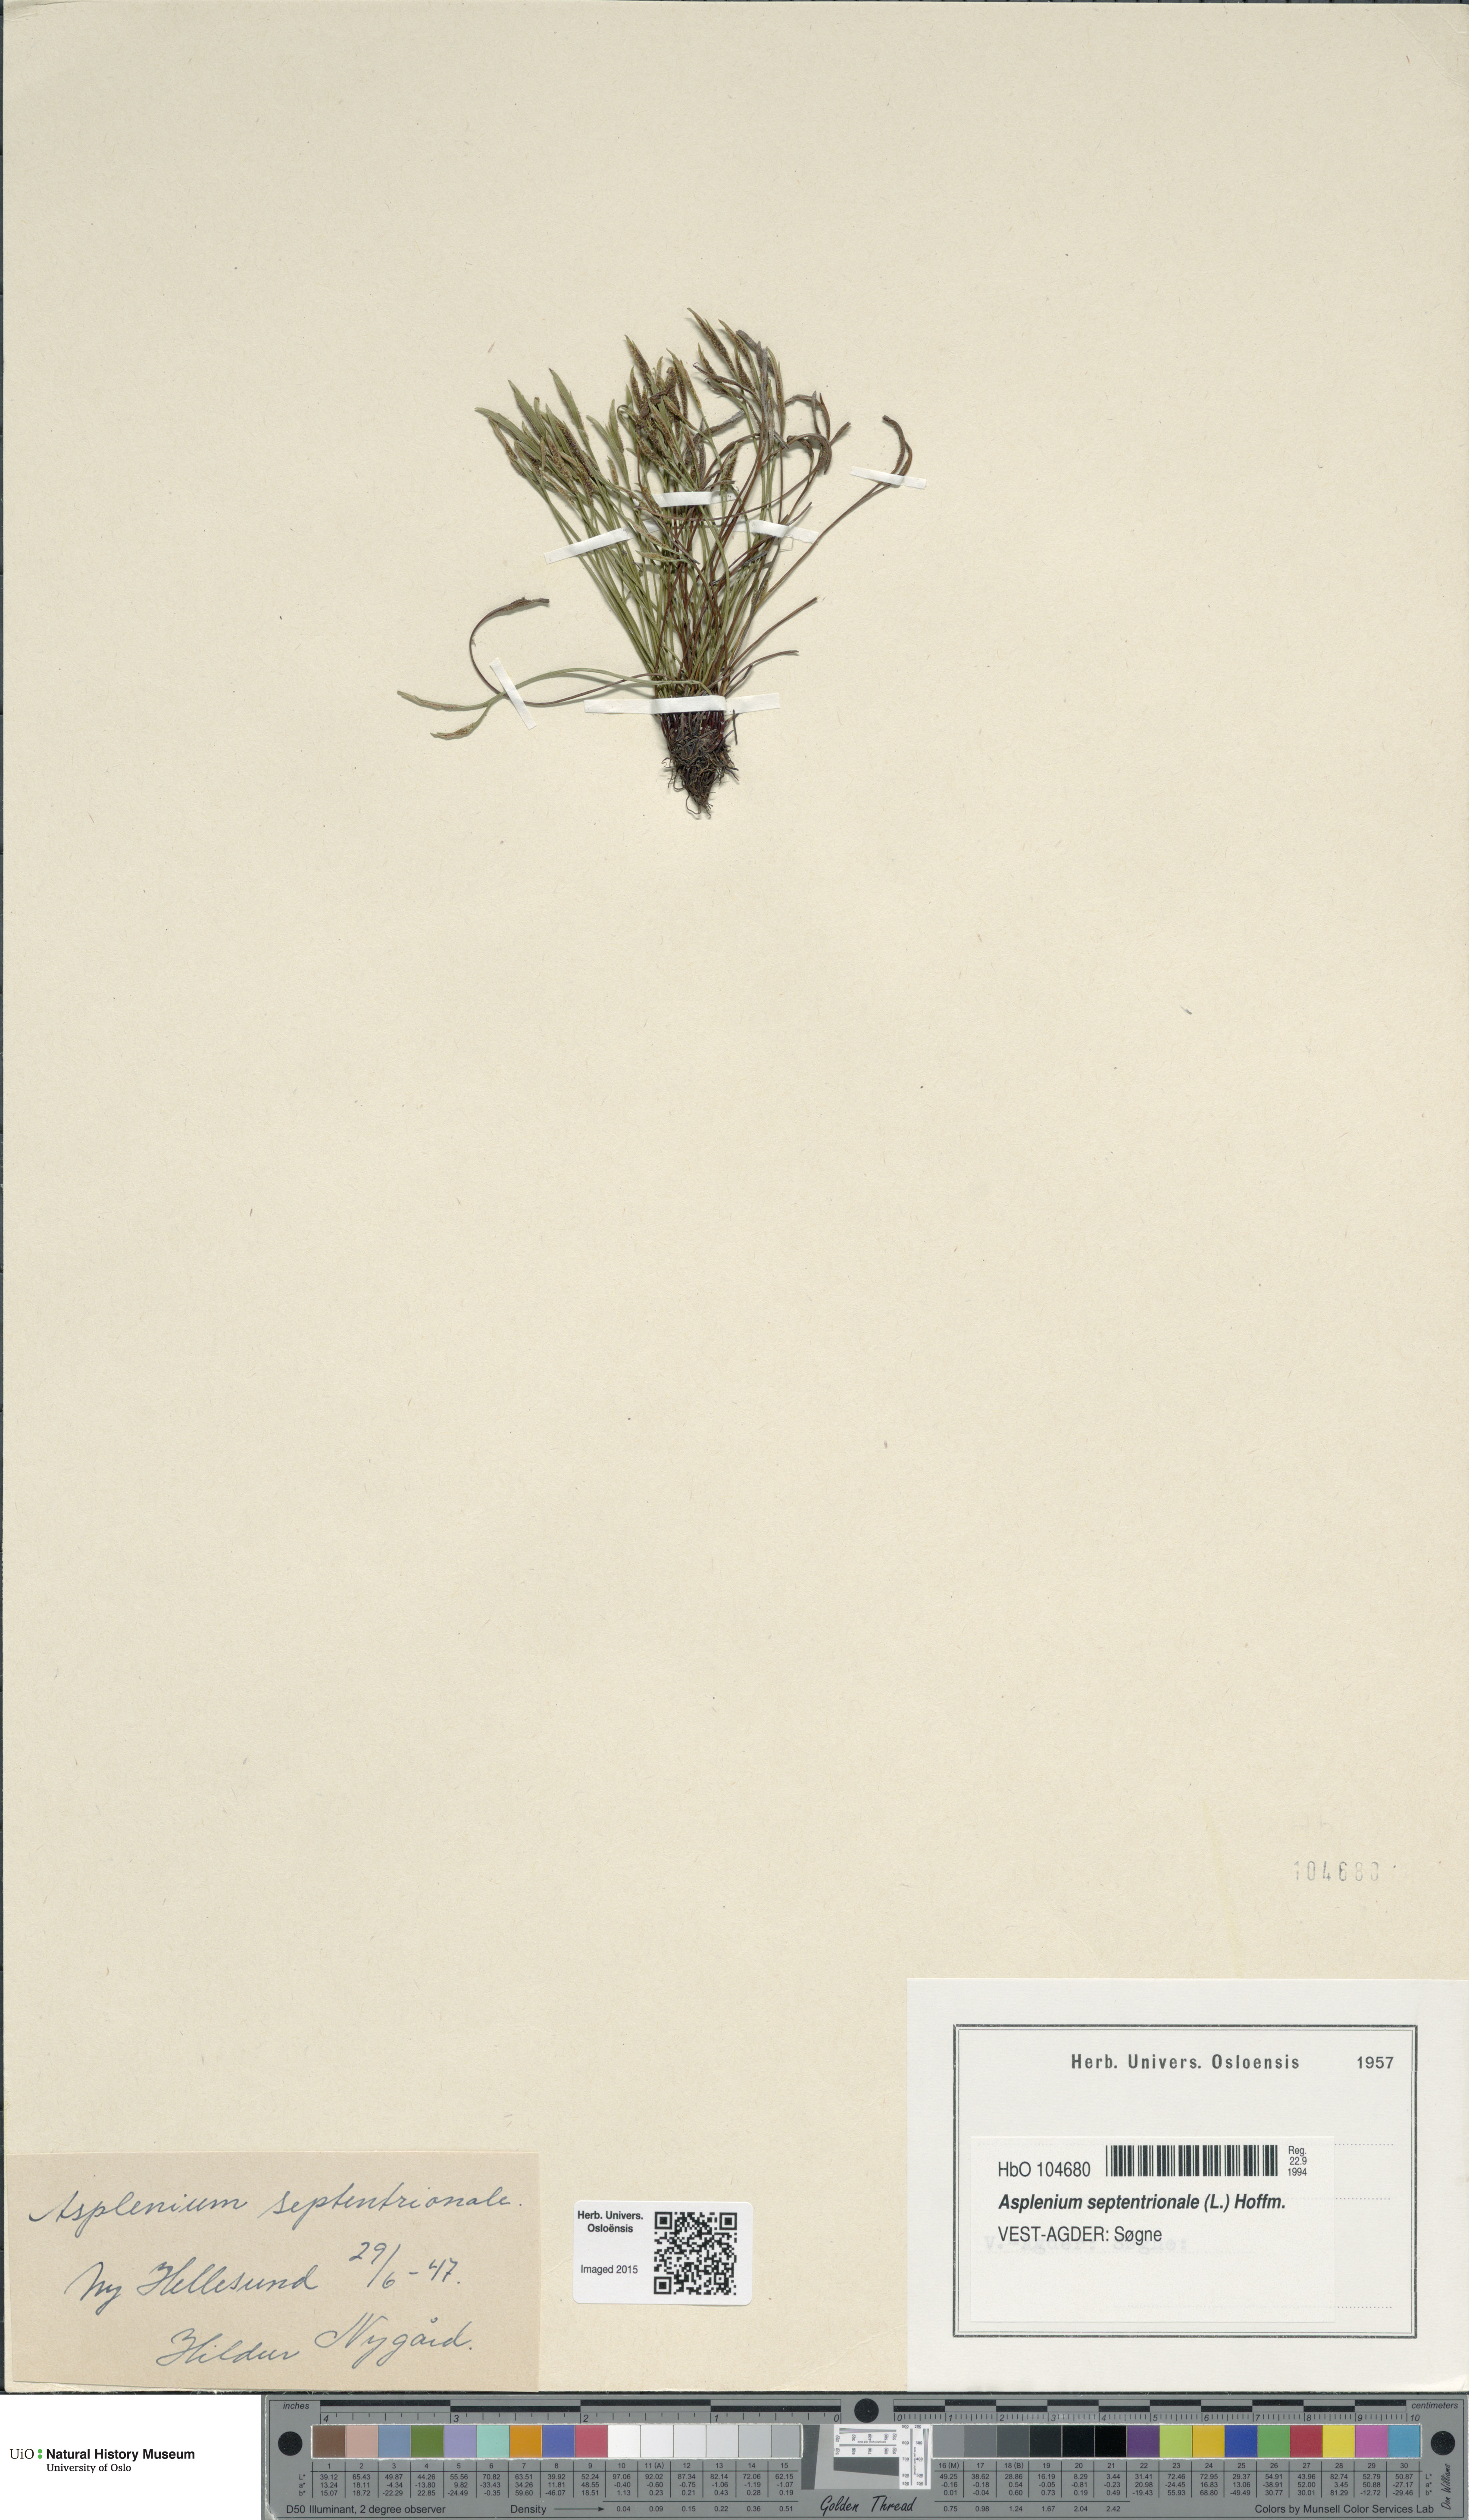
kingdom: Plantae
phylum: Tracheophyta
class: Polypodiopsida
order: Polypodiales
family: Aspleniaceae
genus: Asplenium
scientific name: Asplenium septentrionale
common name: Forked spleenwort
